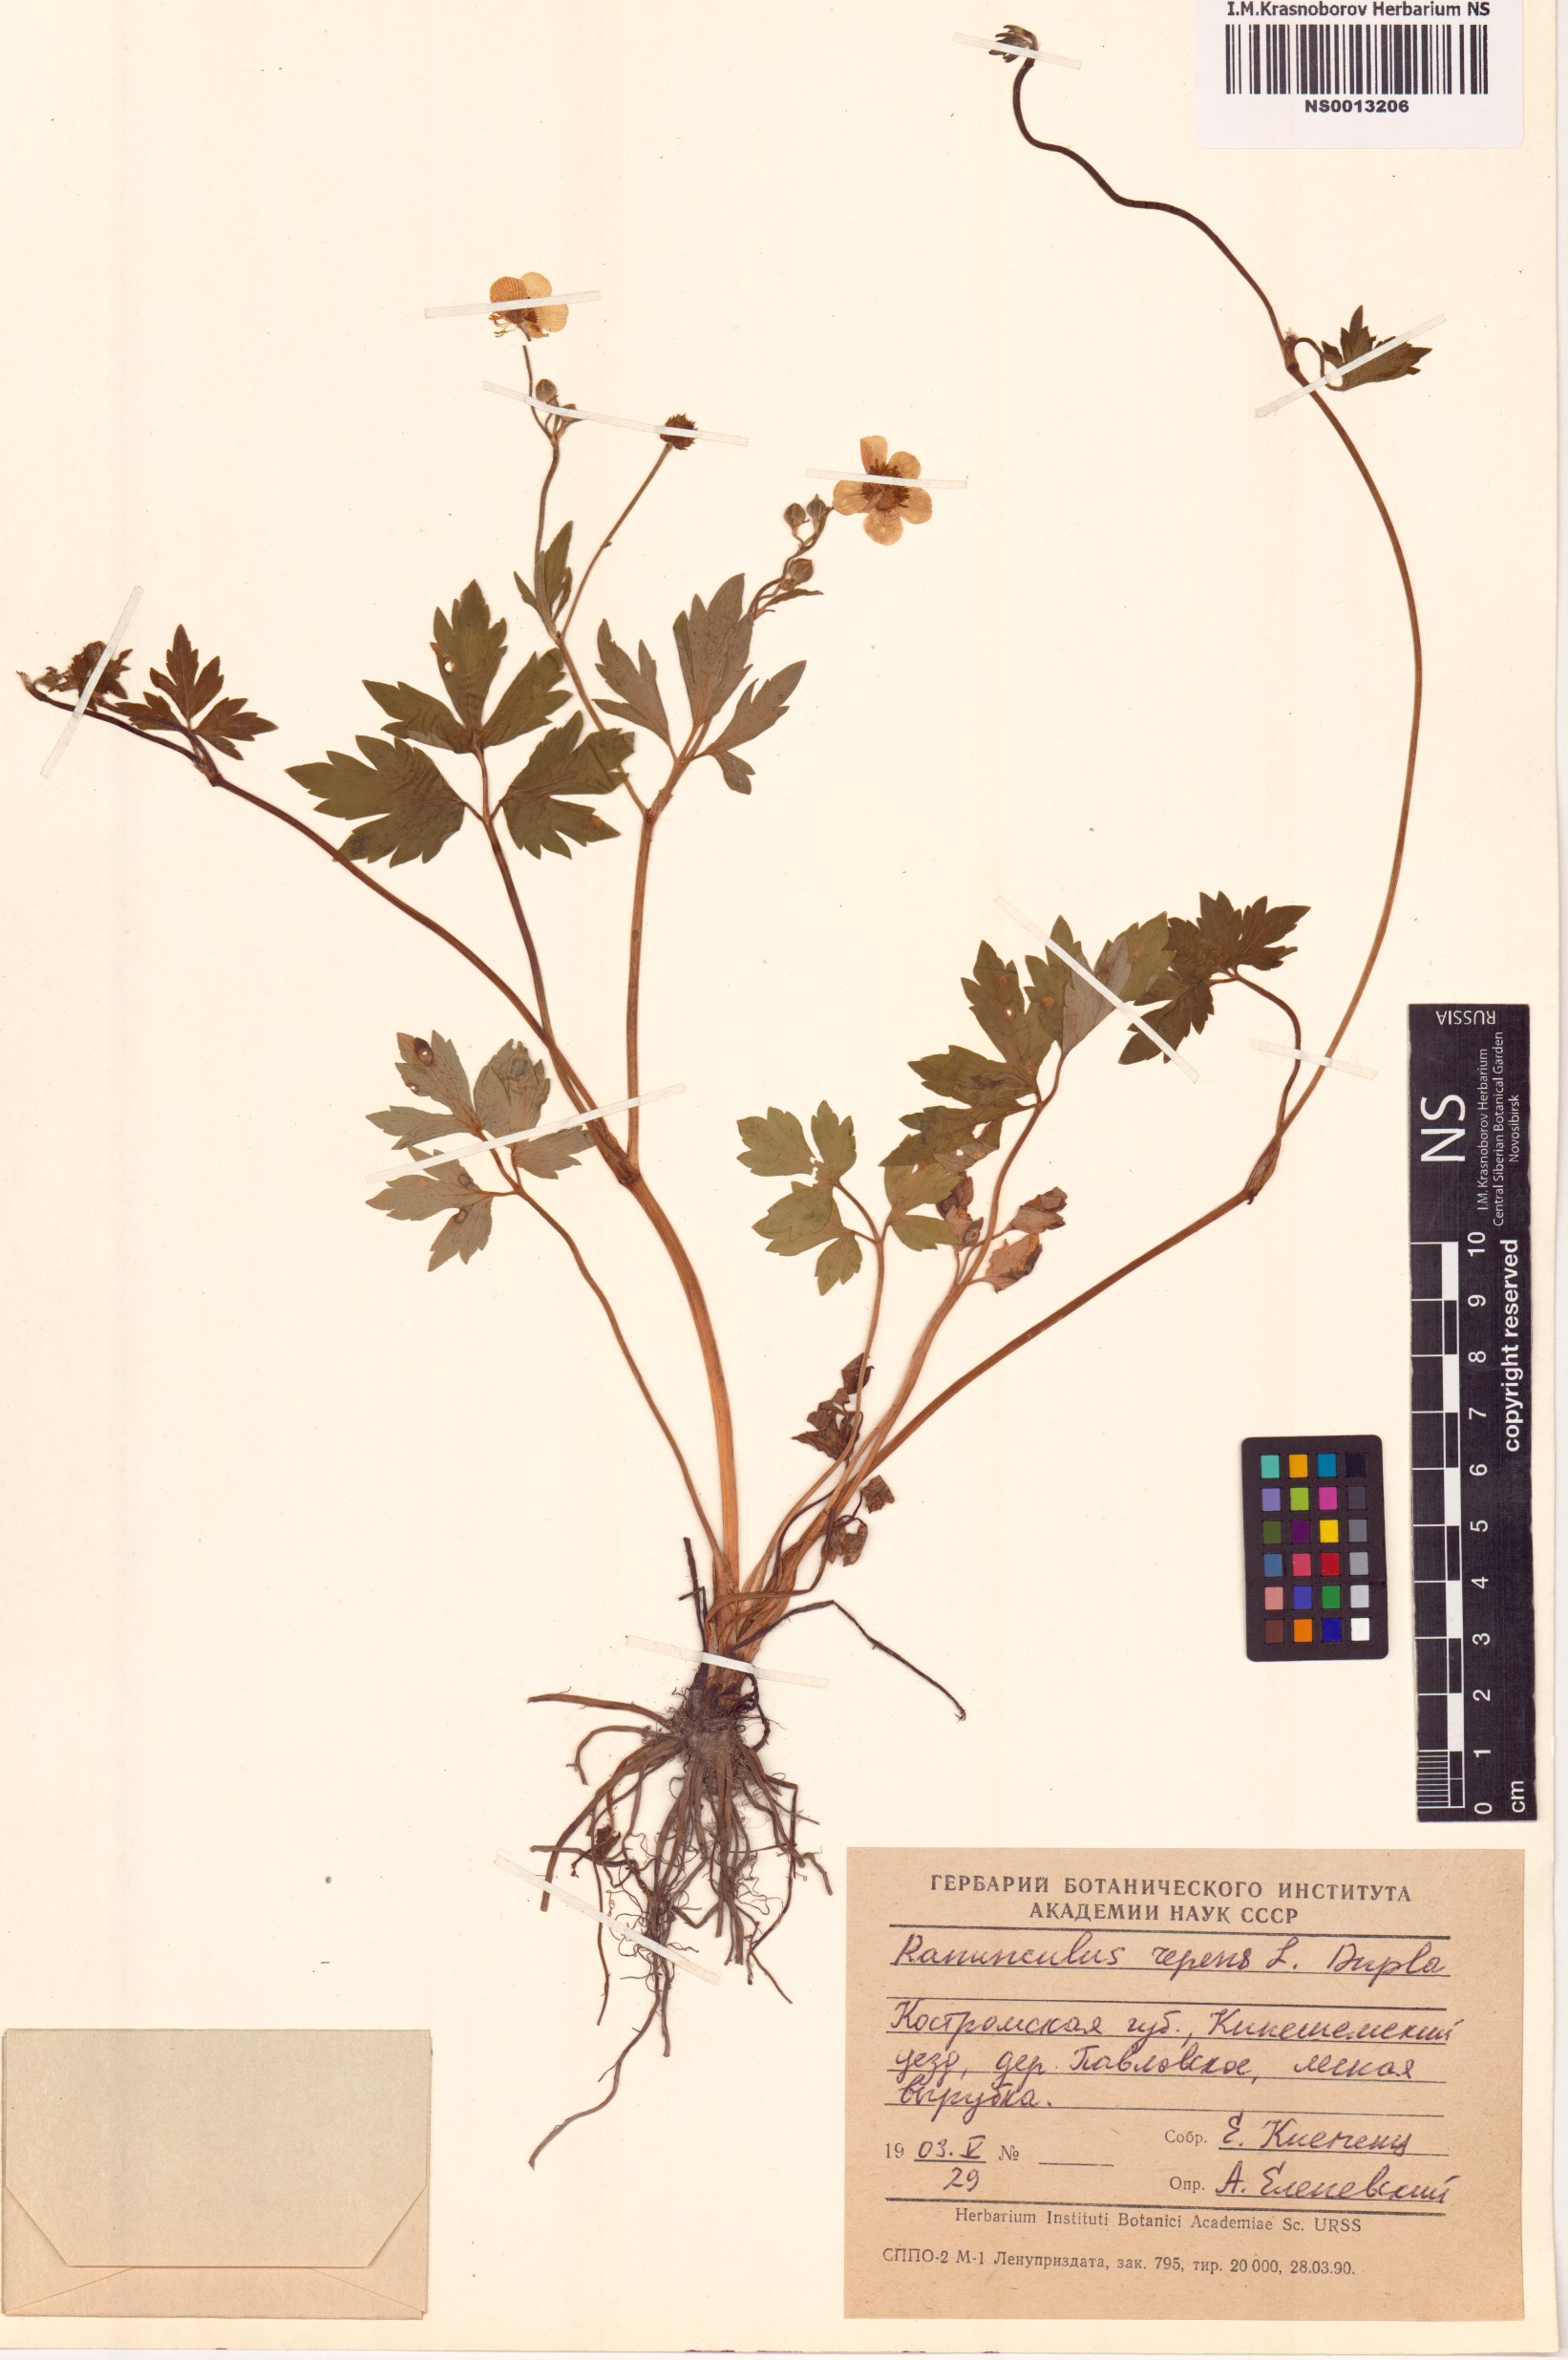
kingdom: Plantae
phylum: Tracheophyta
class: Magnoliopsida
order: Ranunculales
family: Ranunculaceae
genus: Ranunculus
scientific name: Ranunculus repens
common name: Creeping buttercup
